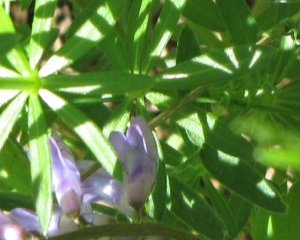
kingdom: Animalia
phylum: Arthropoda
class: Insecta
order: Lepidoptera
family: Hesperiidae
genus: Lon
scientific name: Lon hobomok
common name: Hobomok Skipper
